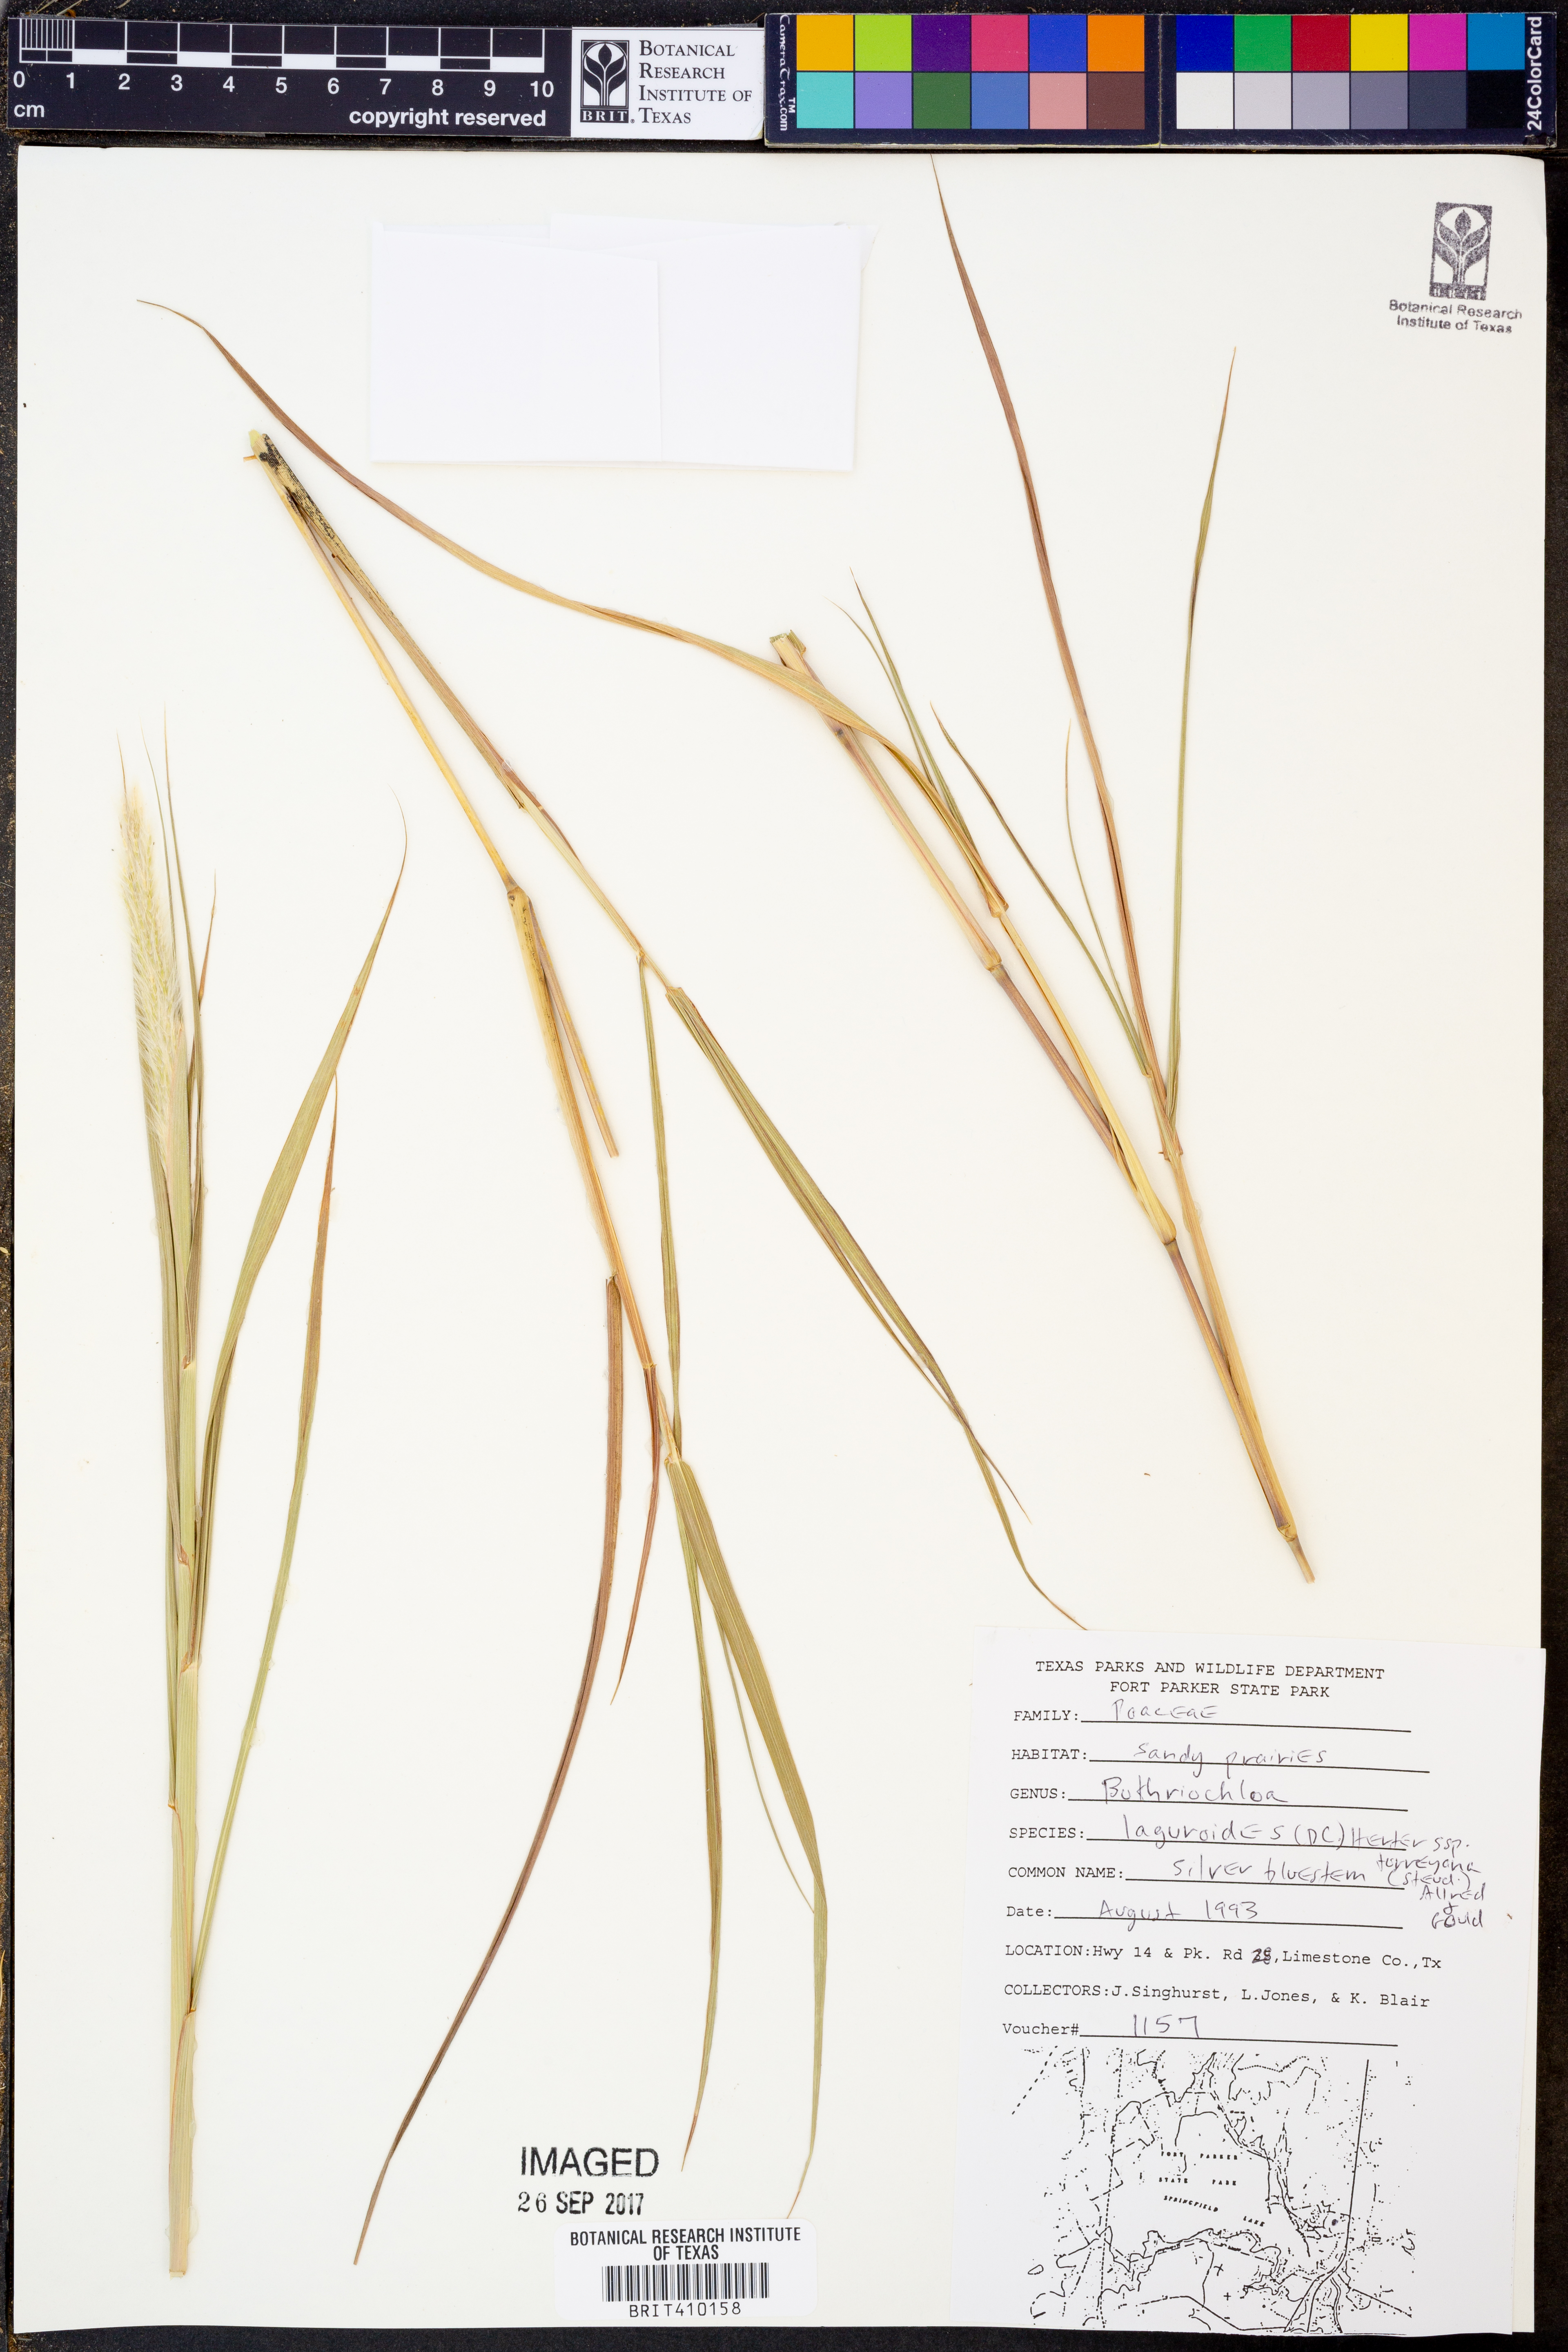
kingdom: Plantae
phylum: Tracheophyta
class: Liliopsida
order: Poales
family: Poaceae
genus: Bothriochloa
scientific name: Bothriochloa torreyana
